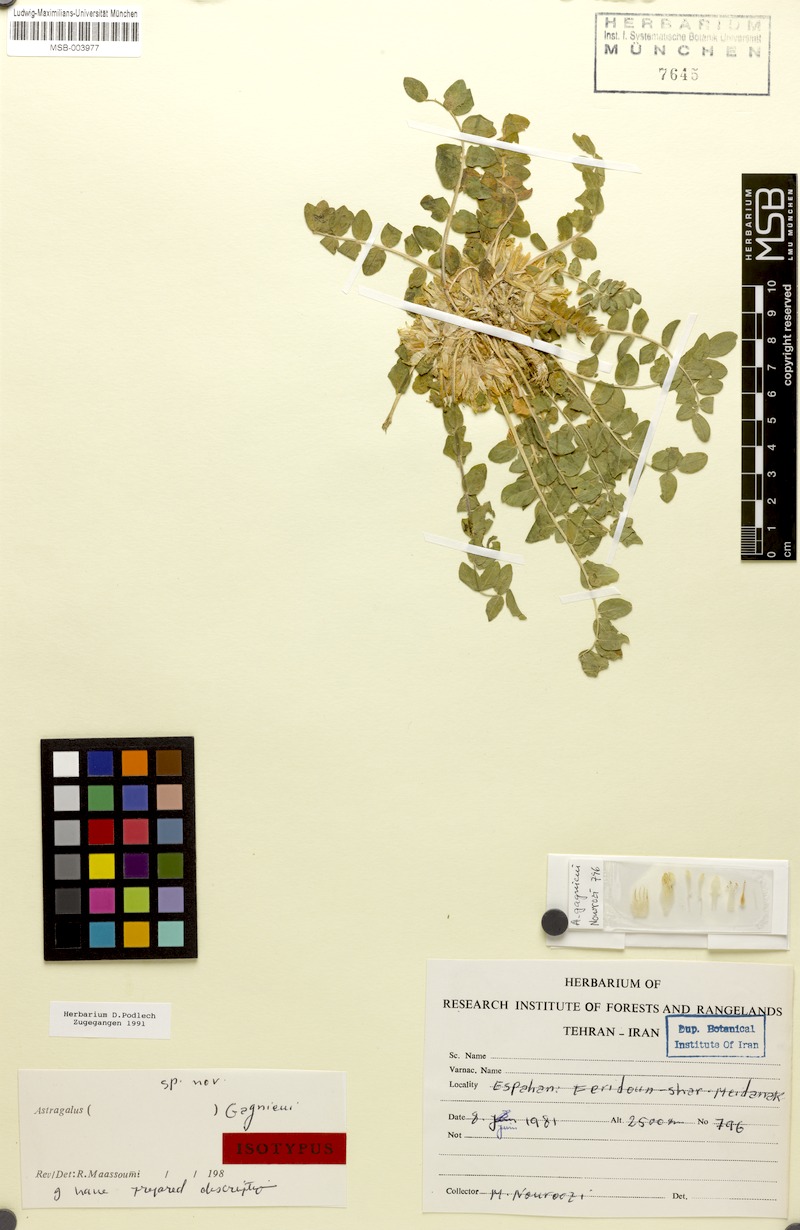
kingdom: Plantae
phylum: Tracheophyta
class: Magnoliopsida
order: Fabales
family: Fabaceae
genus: Astragalus
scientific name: Astragalus gagnieui
